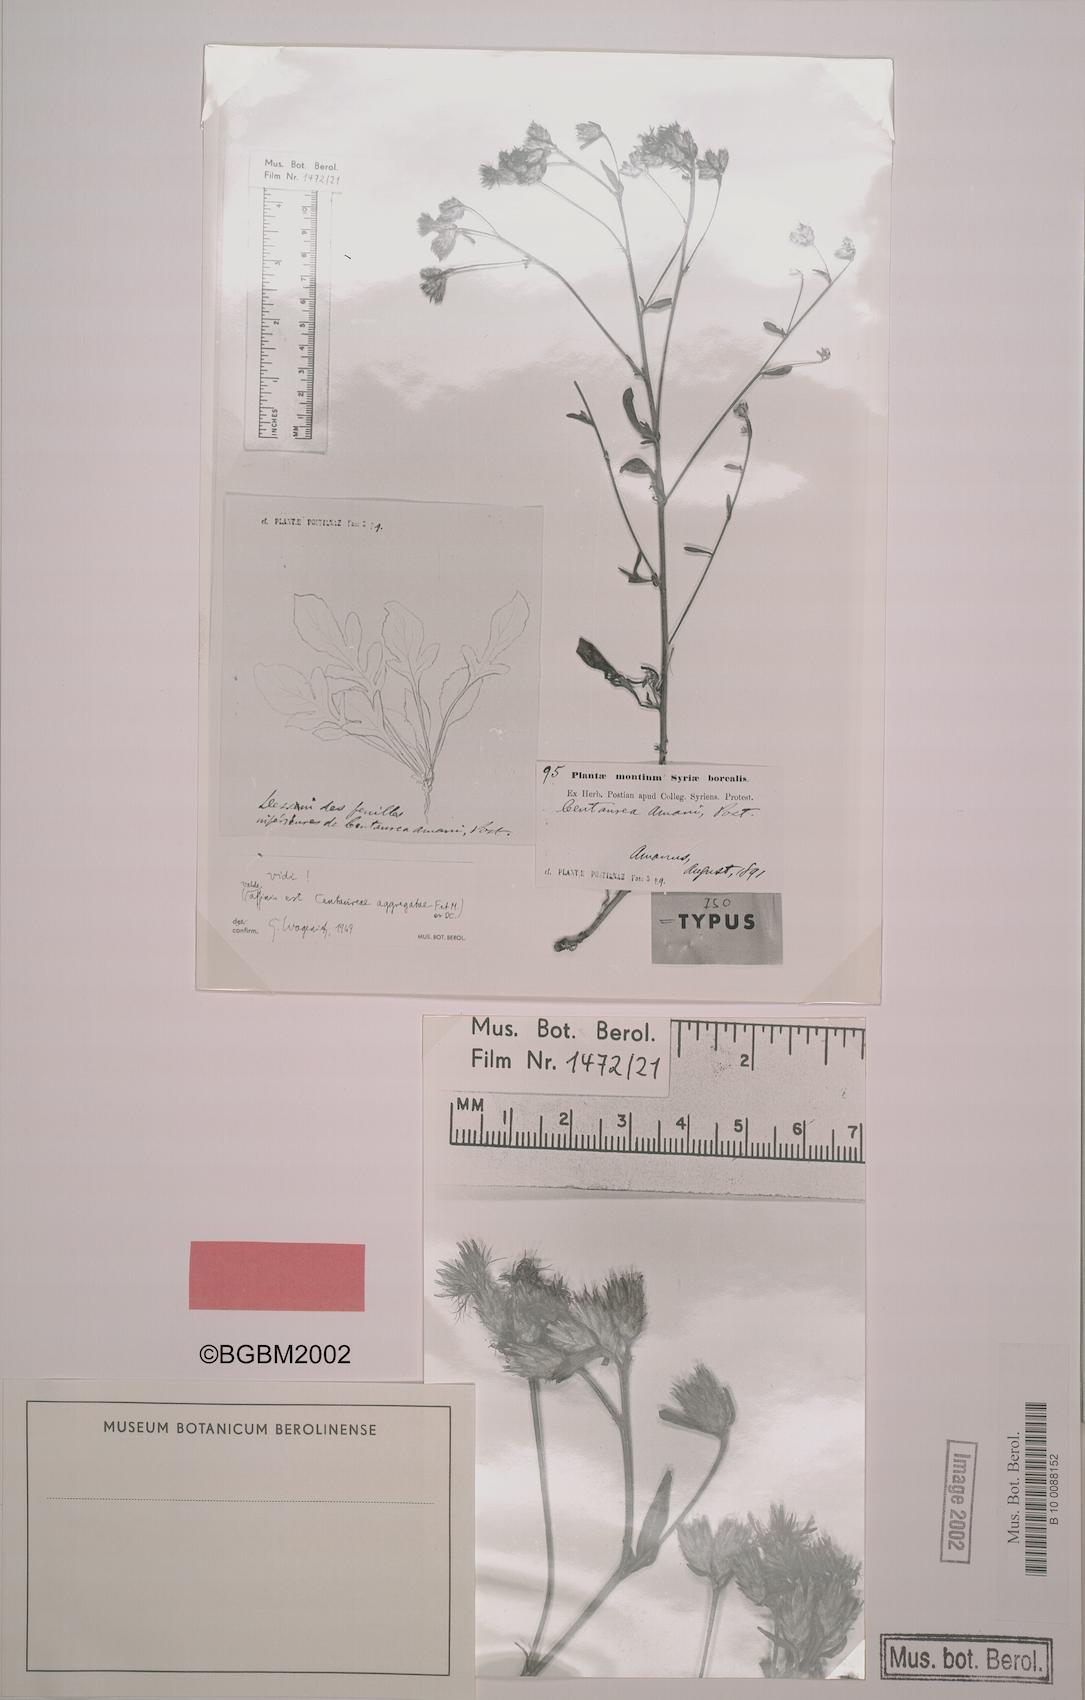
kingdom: Plantae
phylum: Tracheophyta
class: Magnoliopsida
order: Asterales
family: Asteraceae
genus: Centaurea
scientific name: Centaurea aggregata
